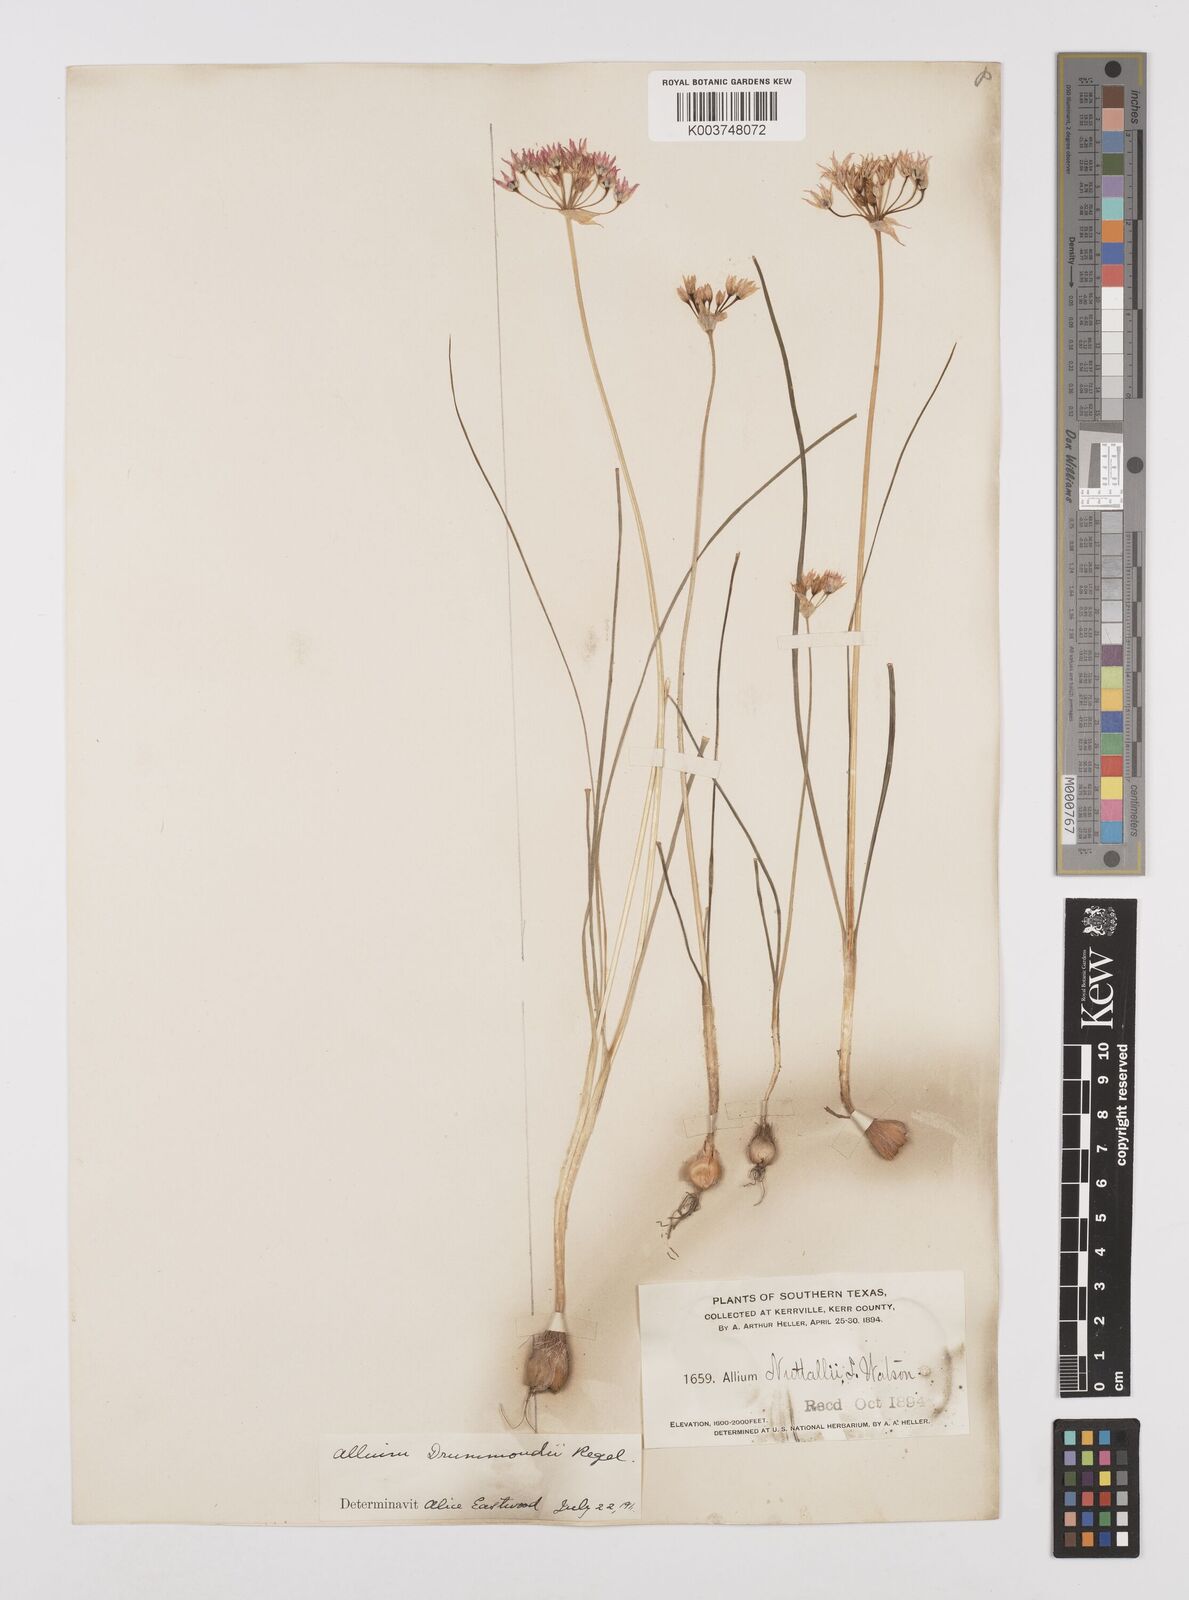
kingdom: Plantae
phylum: Tracheophyta
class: Liliopsida
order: Asparagales
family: Amaryllidaceae
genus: Allium
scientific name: Allium drummondii
